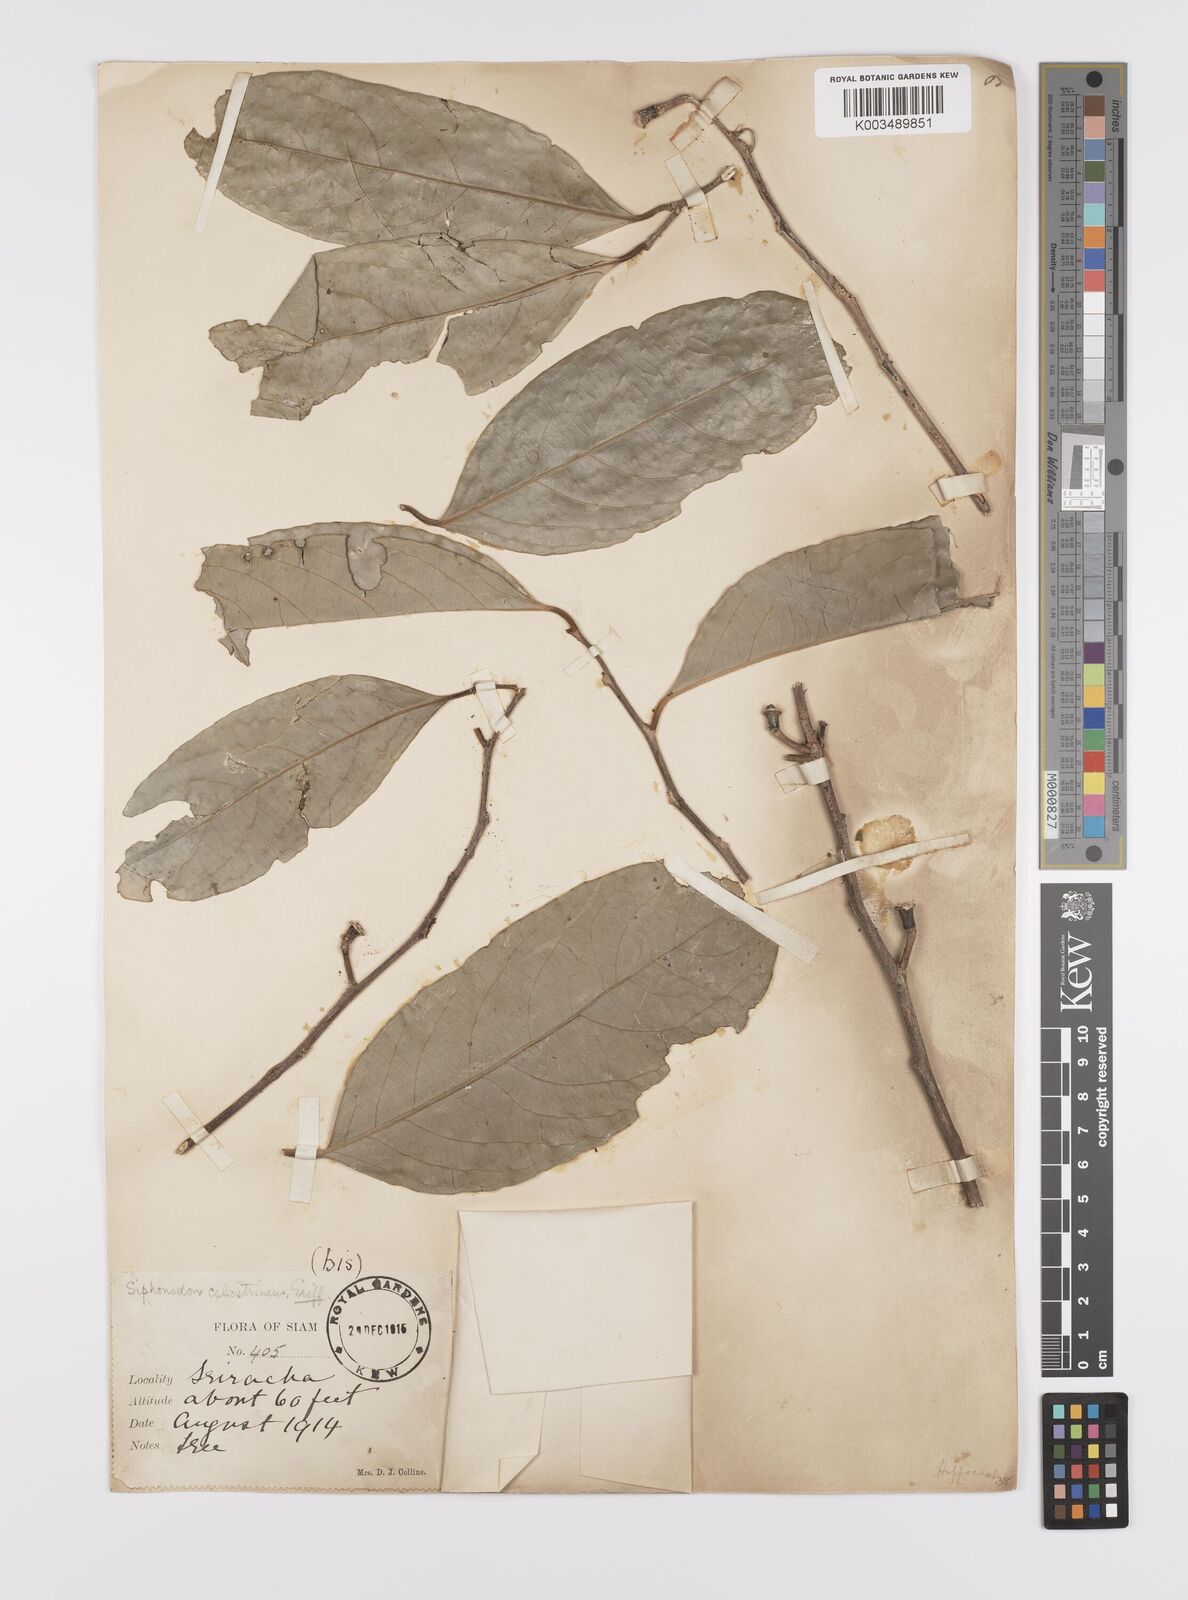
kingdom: Plantae
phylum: Tracheophyta
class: Magnoliopsida
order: Celastrales
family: Celastraceae
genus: Siphonodon
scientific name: Siphonodon celastrineus
